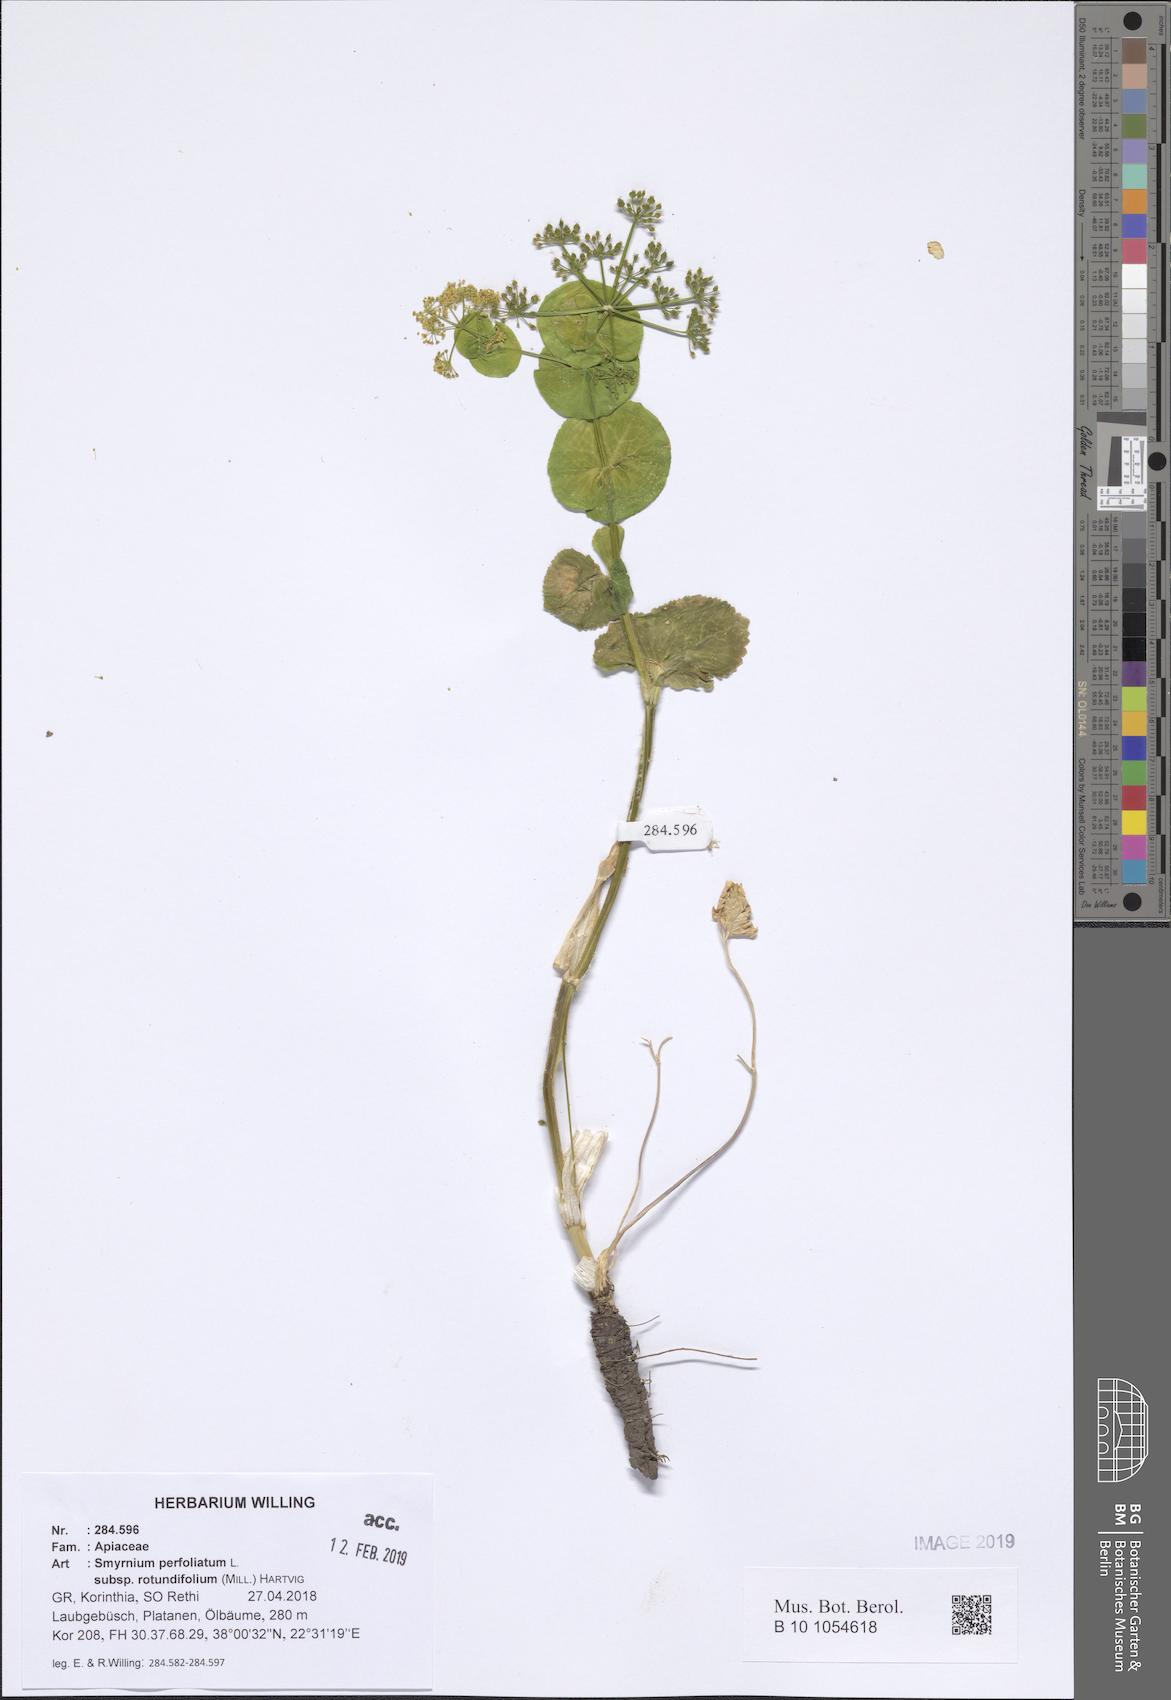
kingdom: Plantae
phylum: Tracheophyta
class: Magnoliopsida
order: Apiales
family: Apiaceae
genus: Smyrnium
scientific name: Smyrnium perfoliatum
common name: Perfoliate alexanders
